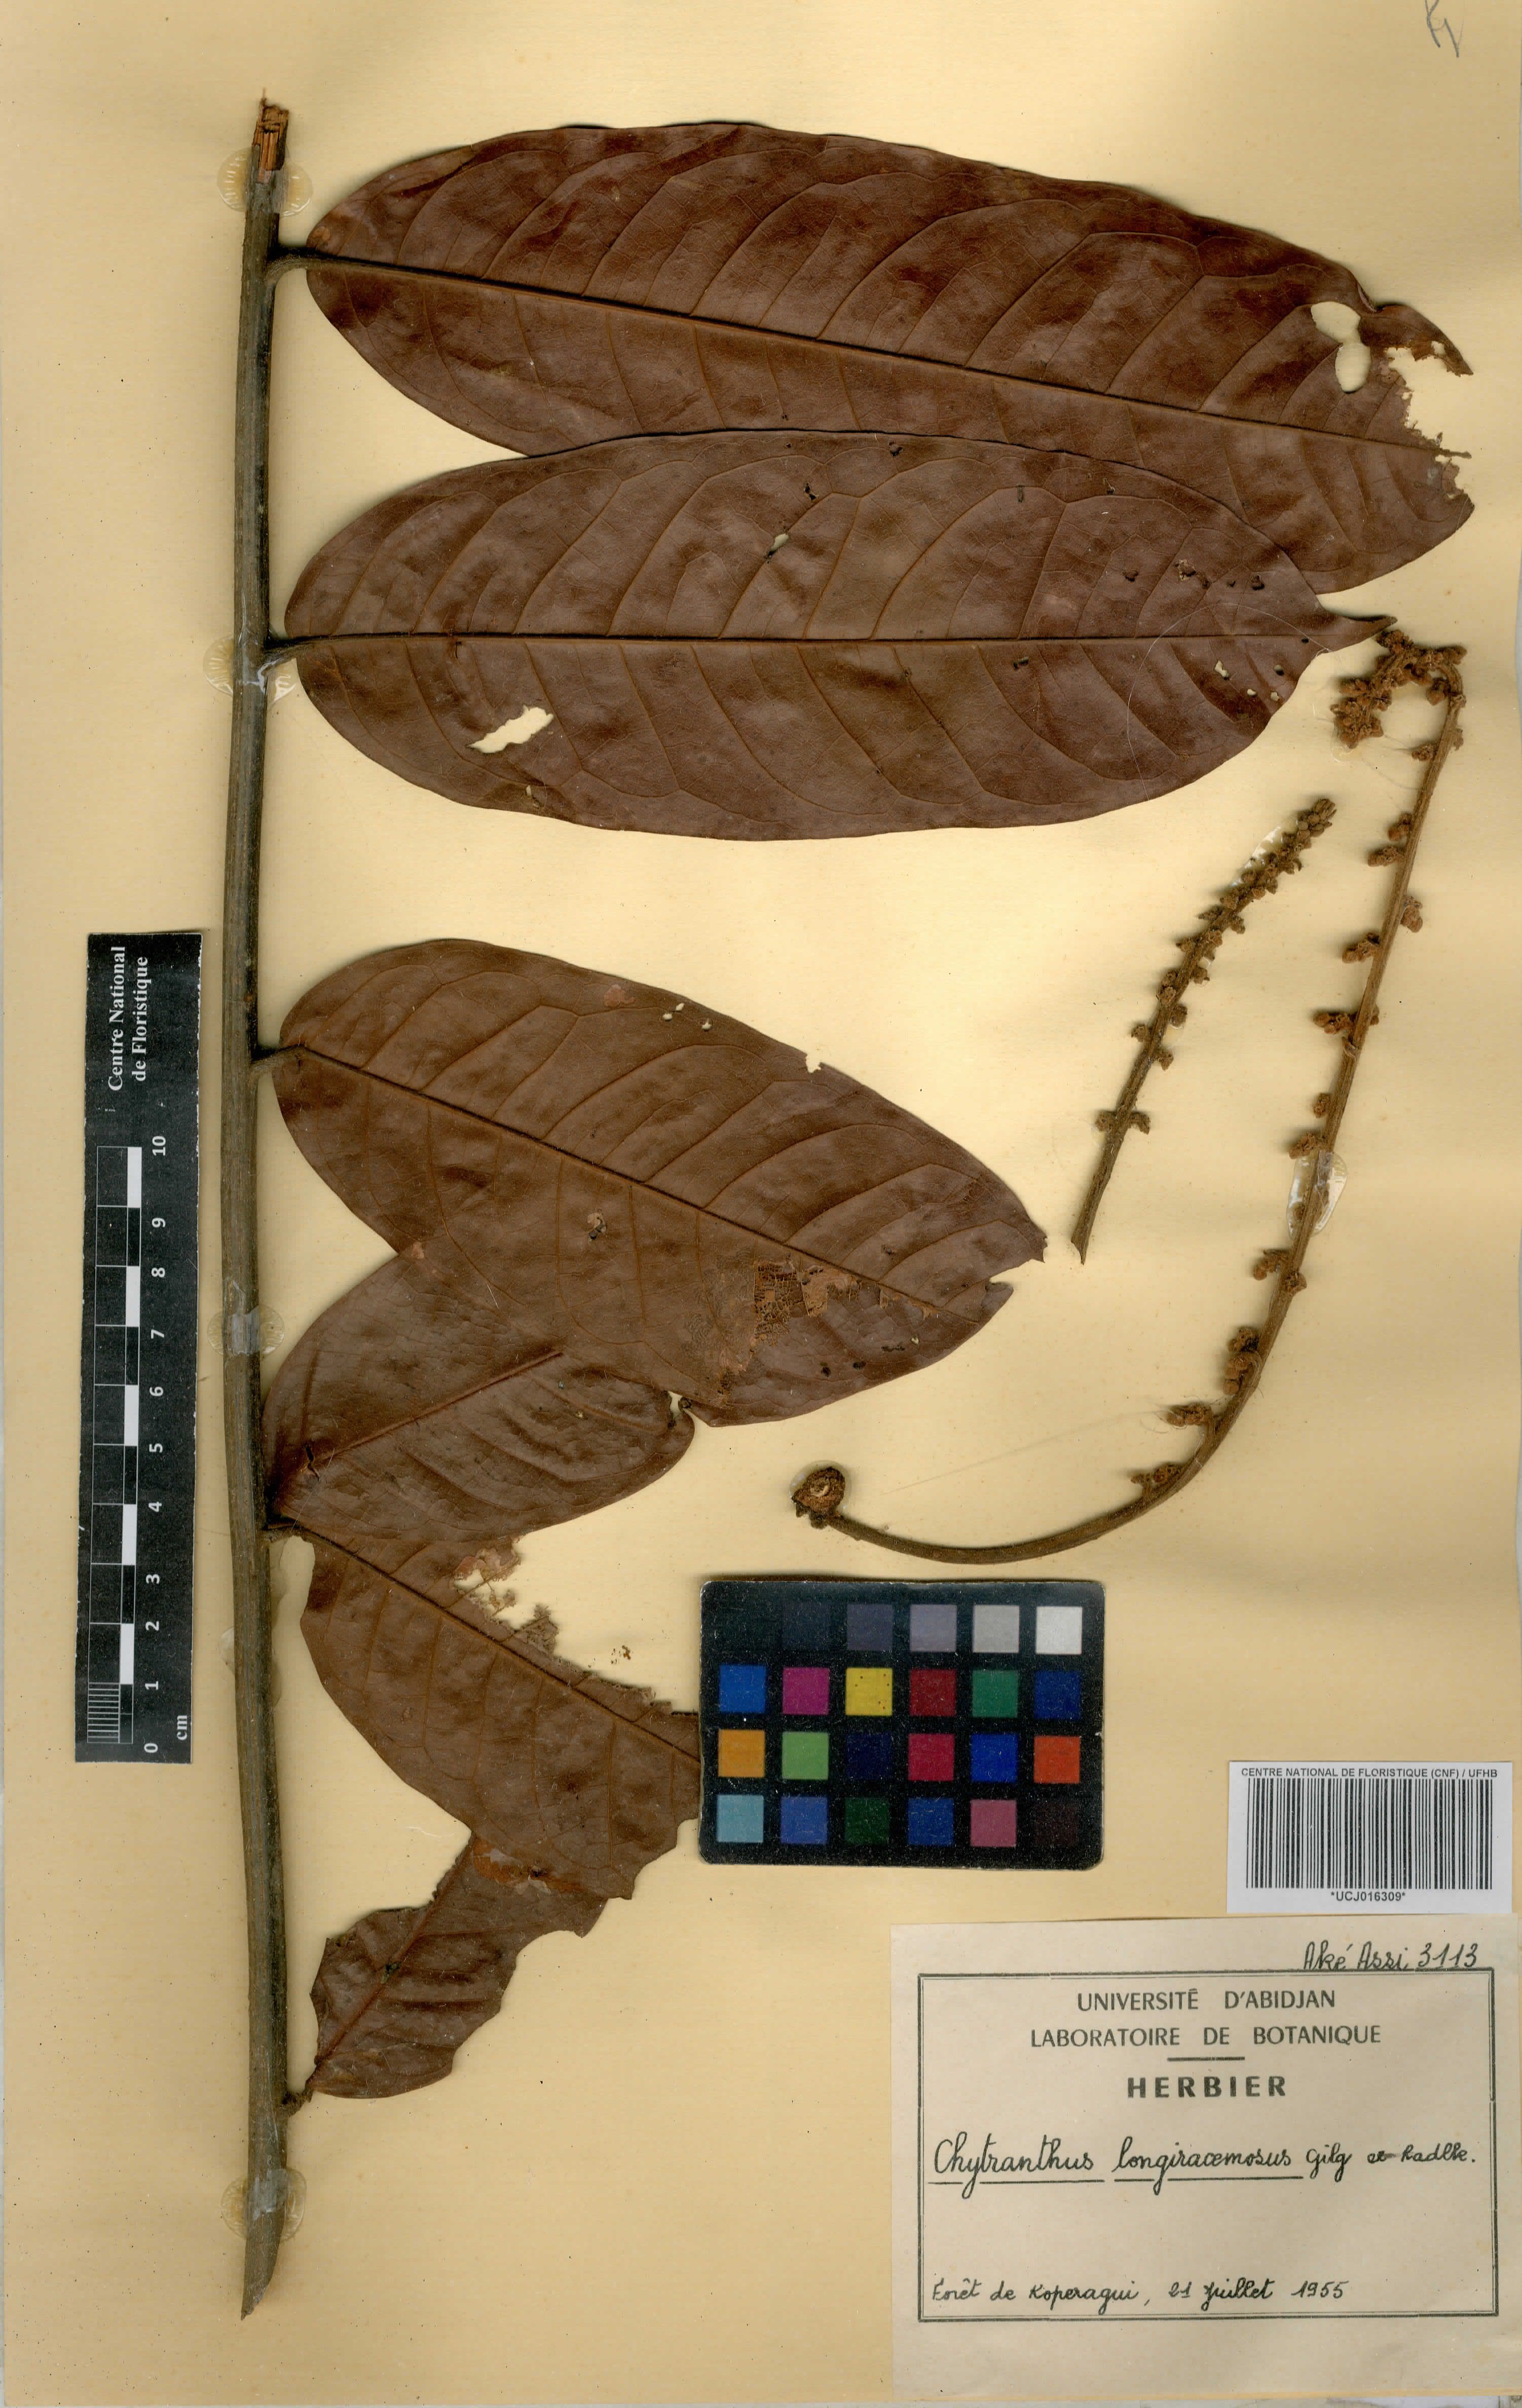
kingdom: Plantae
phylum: Tracheophyta
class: Magnoliopsida
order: Sapindales
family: Sapindaceae
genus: Chytranthus
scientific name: Chytranthus carneus
